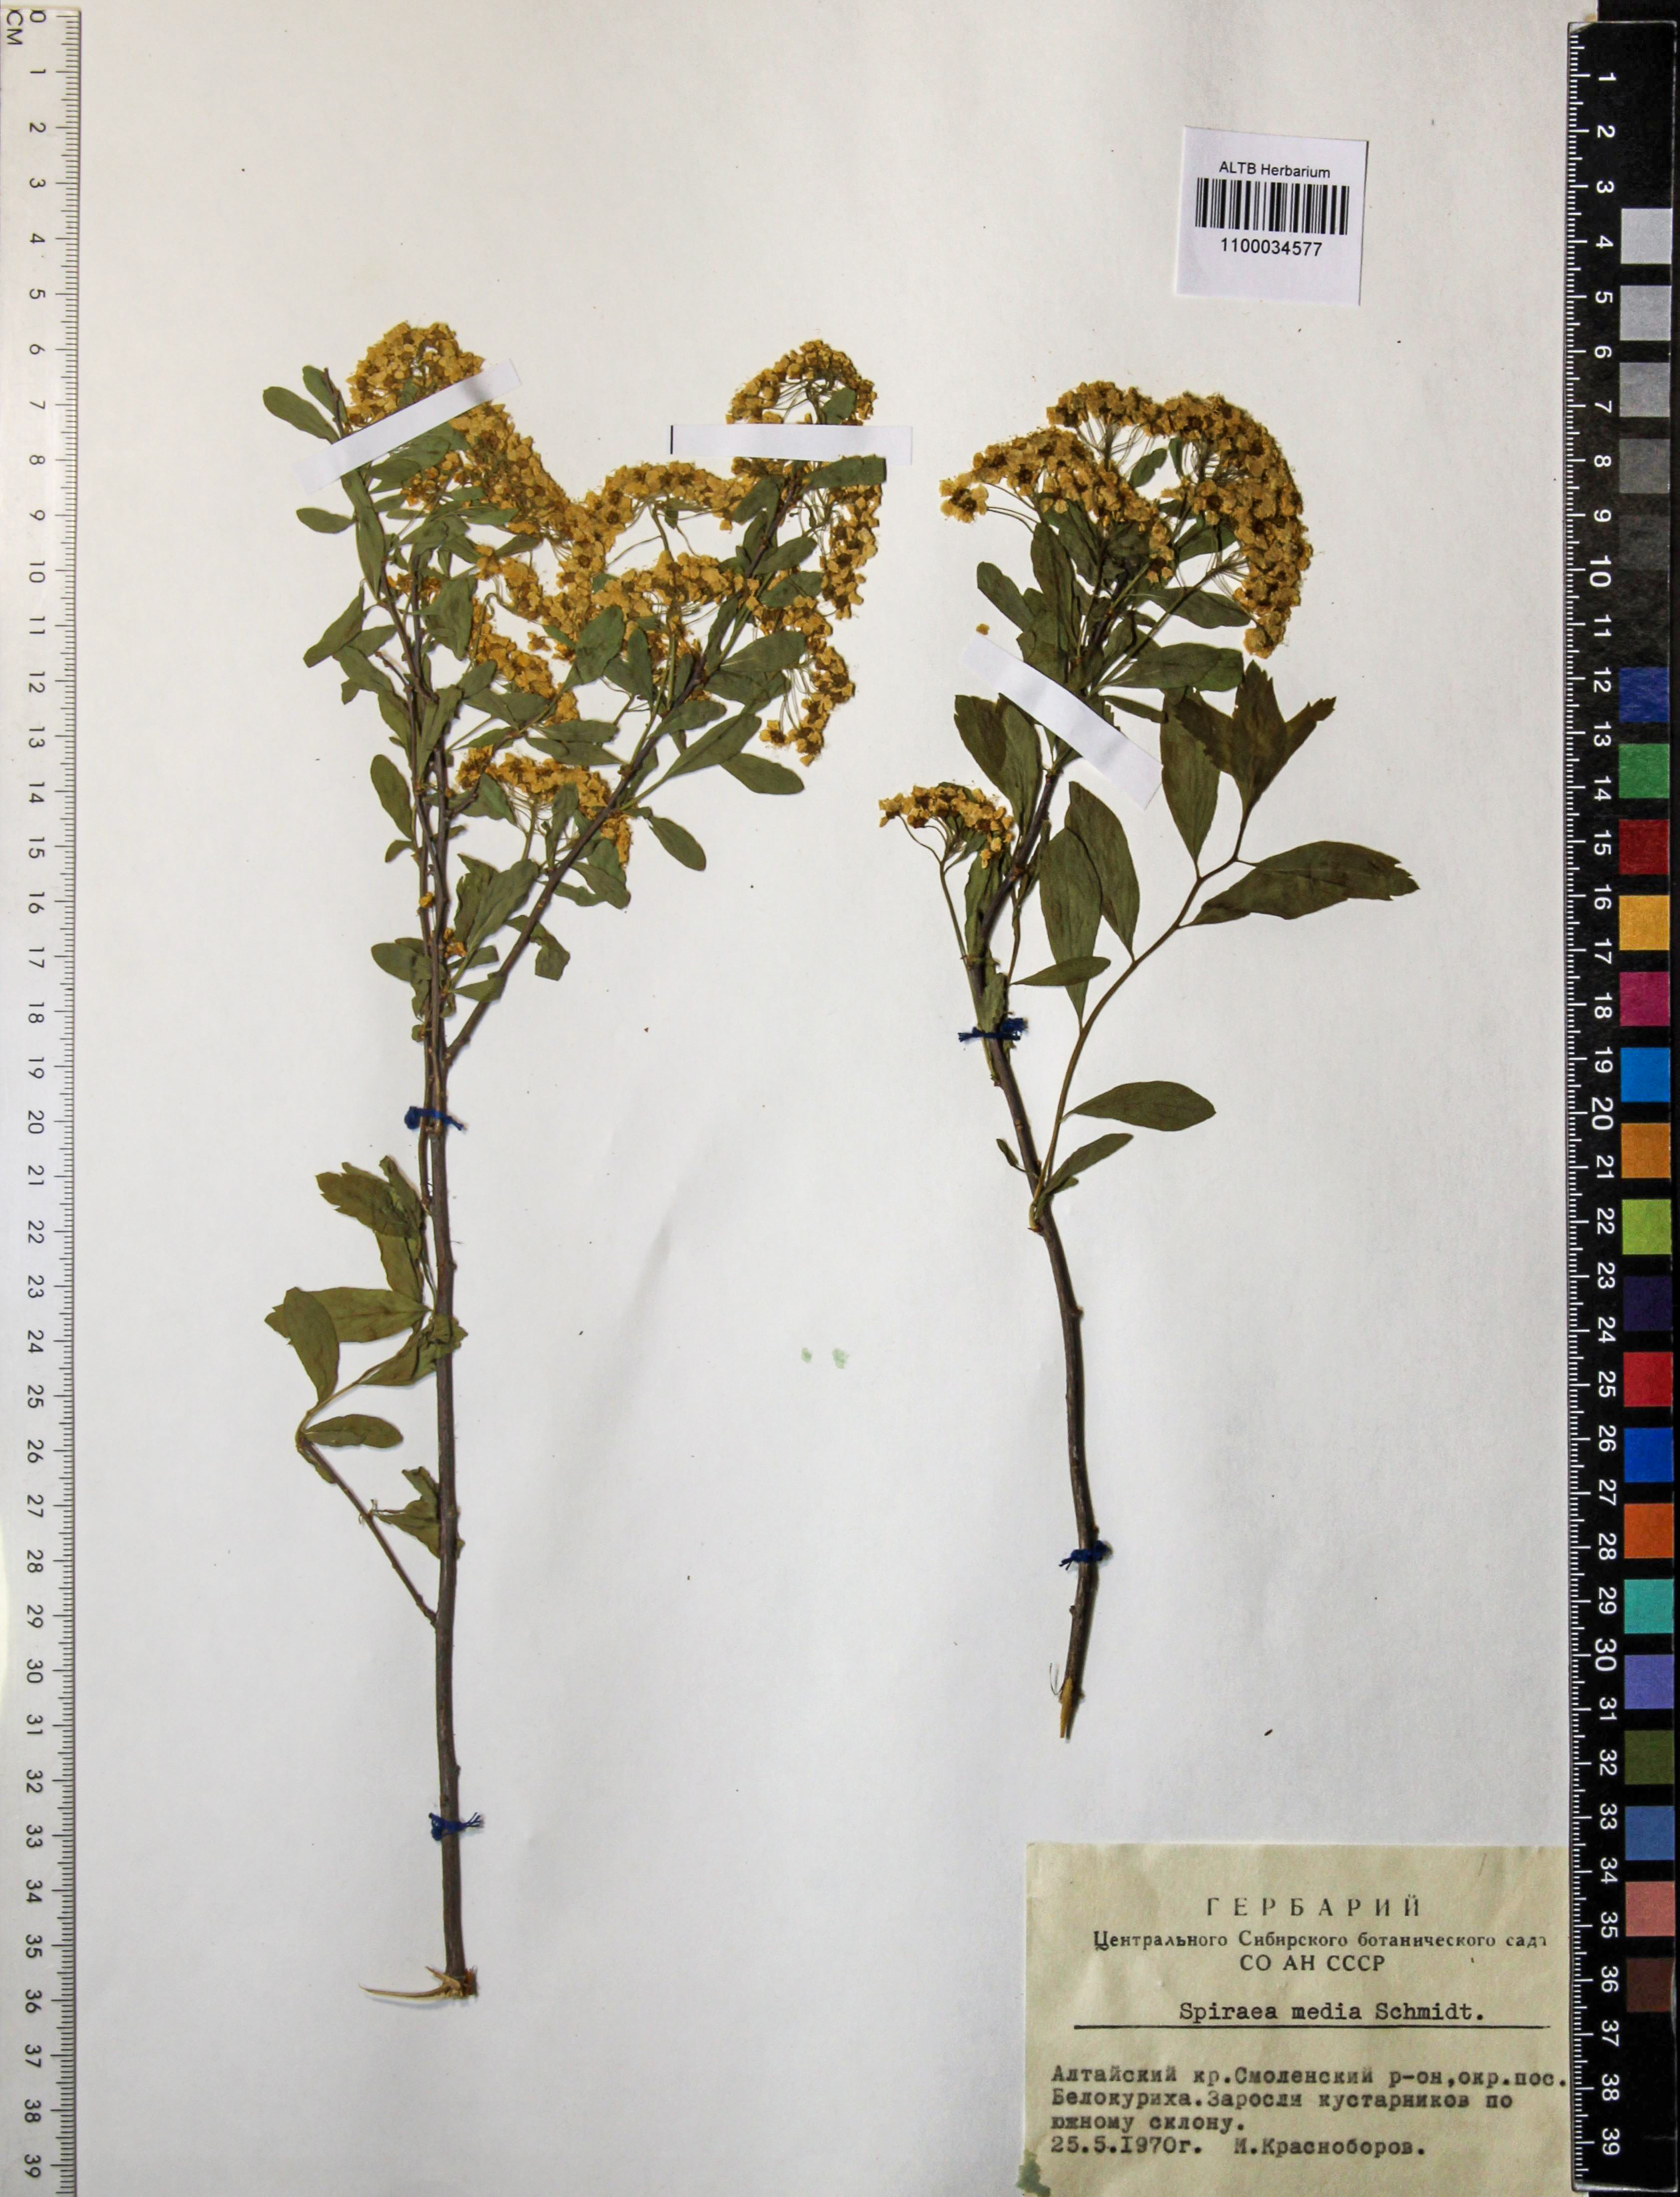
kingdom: Plantae
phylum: Tracheophyta
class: Magnoliopsida
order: Rosales
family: Rosaceae
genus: Spiraea
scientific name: Spiraea media
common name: Russian spiraea
